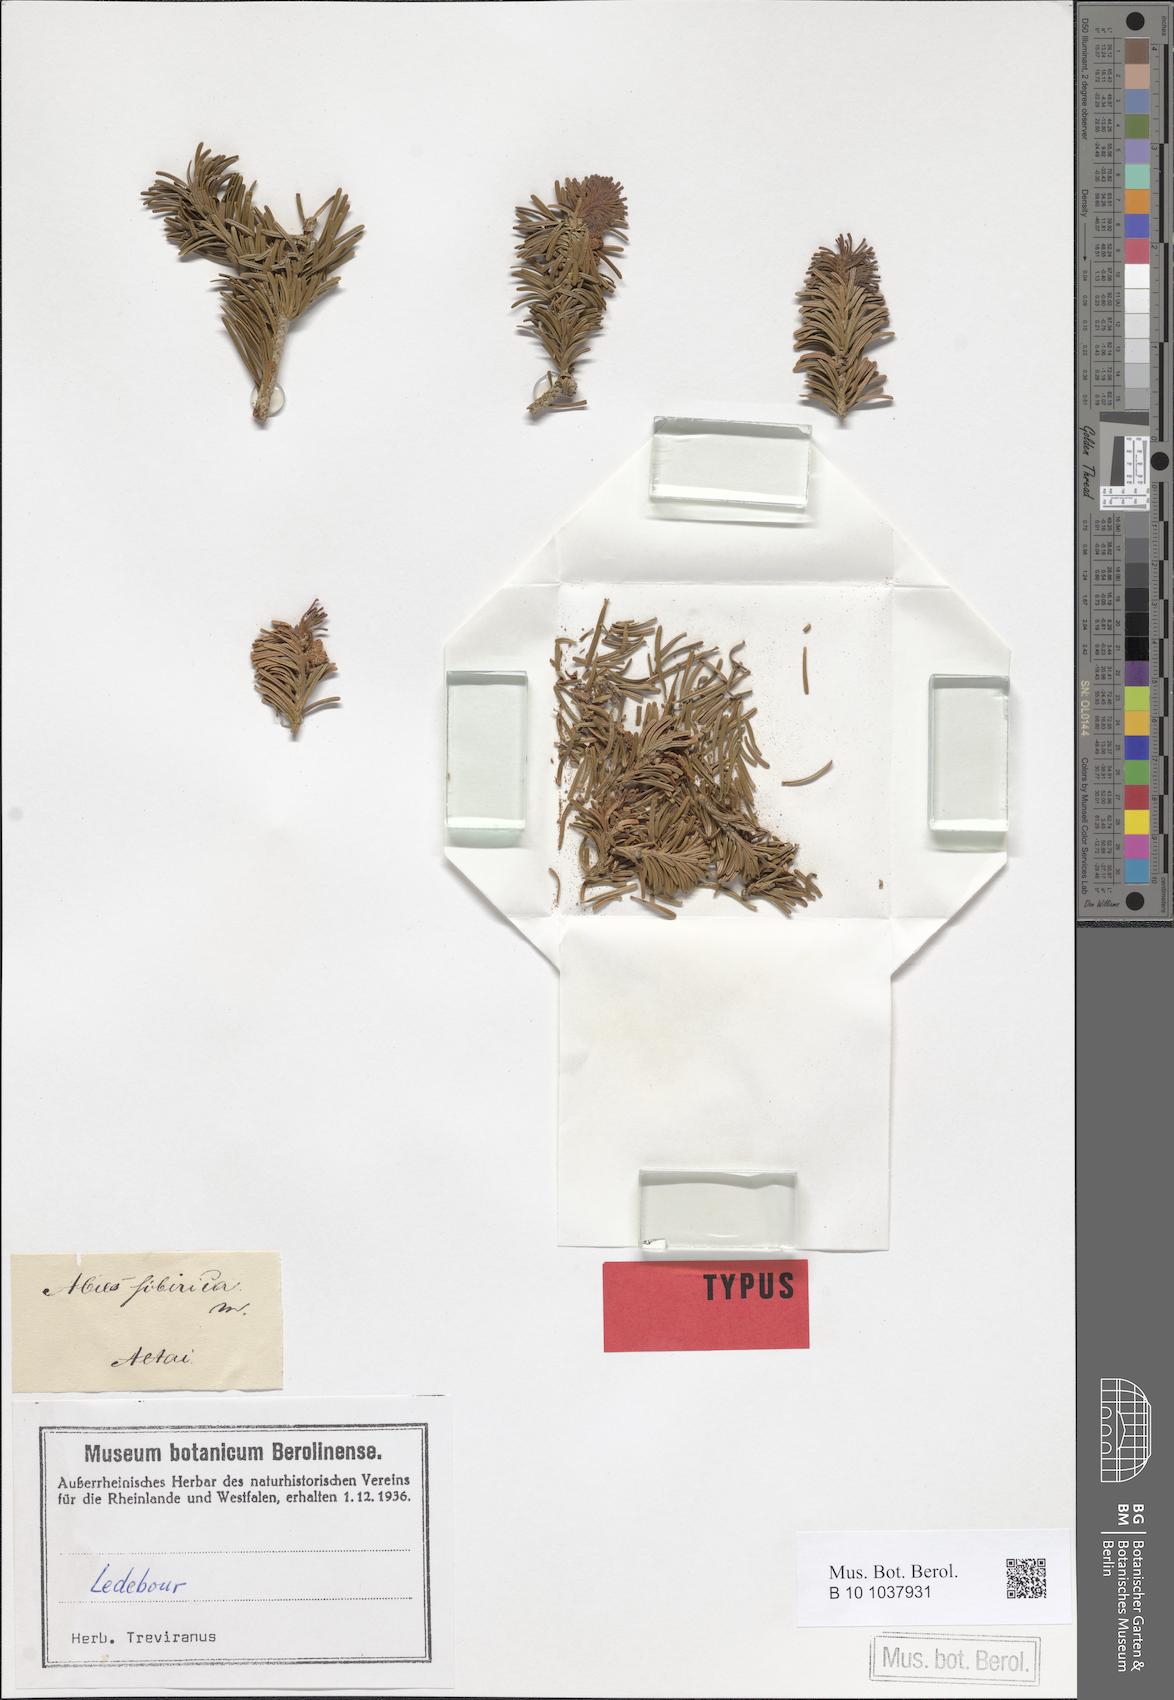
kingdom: Plantae
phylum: Tracheophyta
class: Pinopsida
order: Pinales
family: Pinaceae
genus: Abies
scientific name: Abies sibirica
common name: Siberian fir
